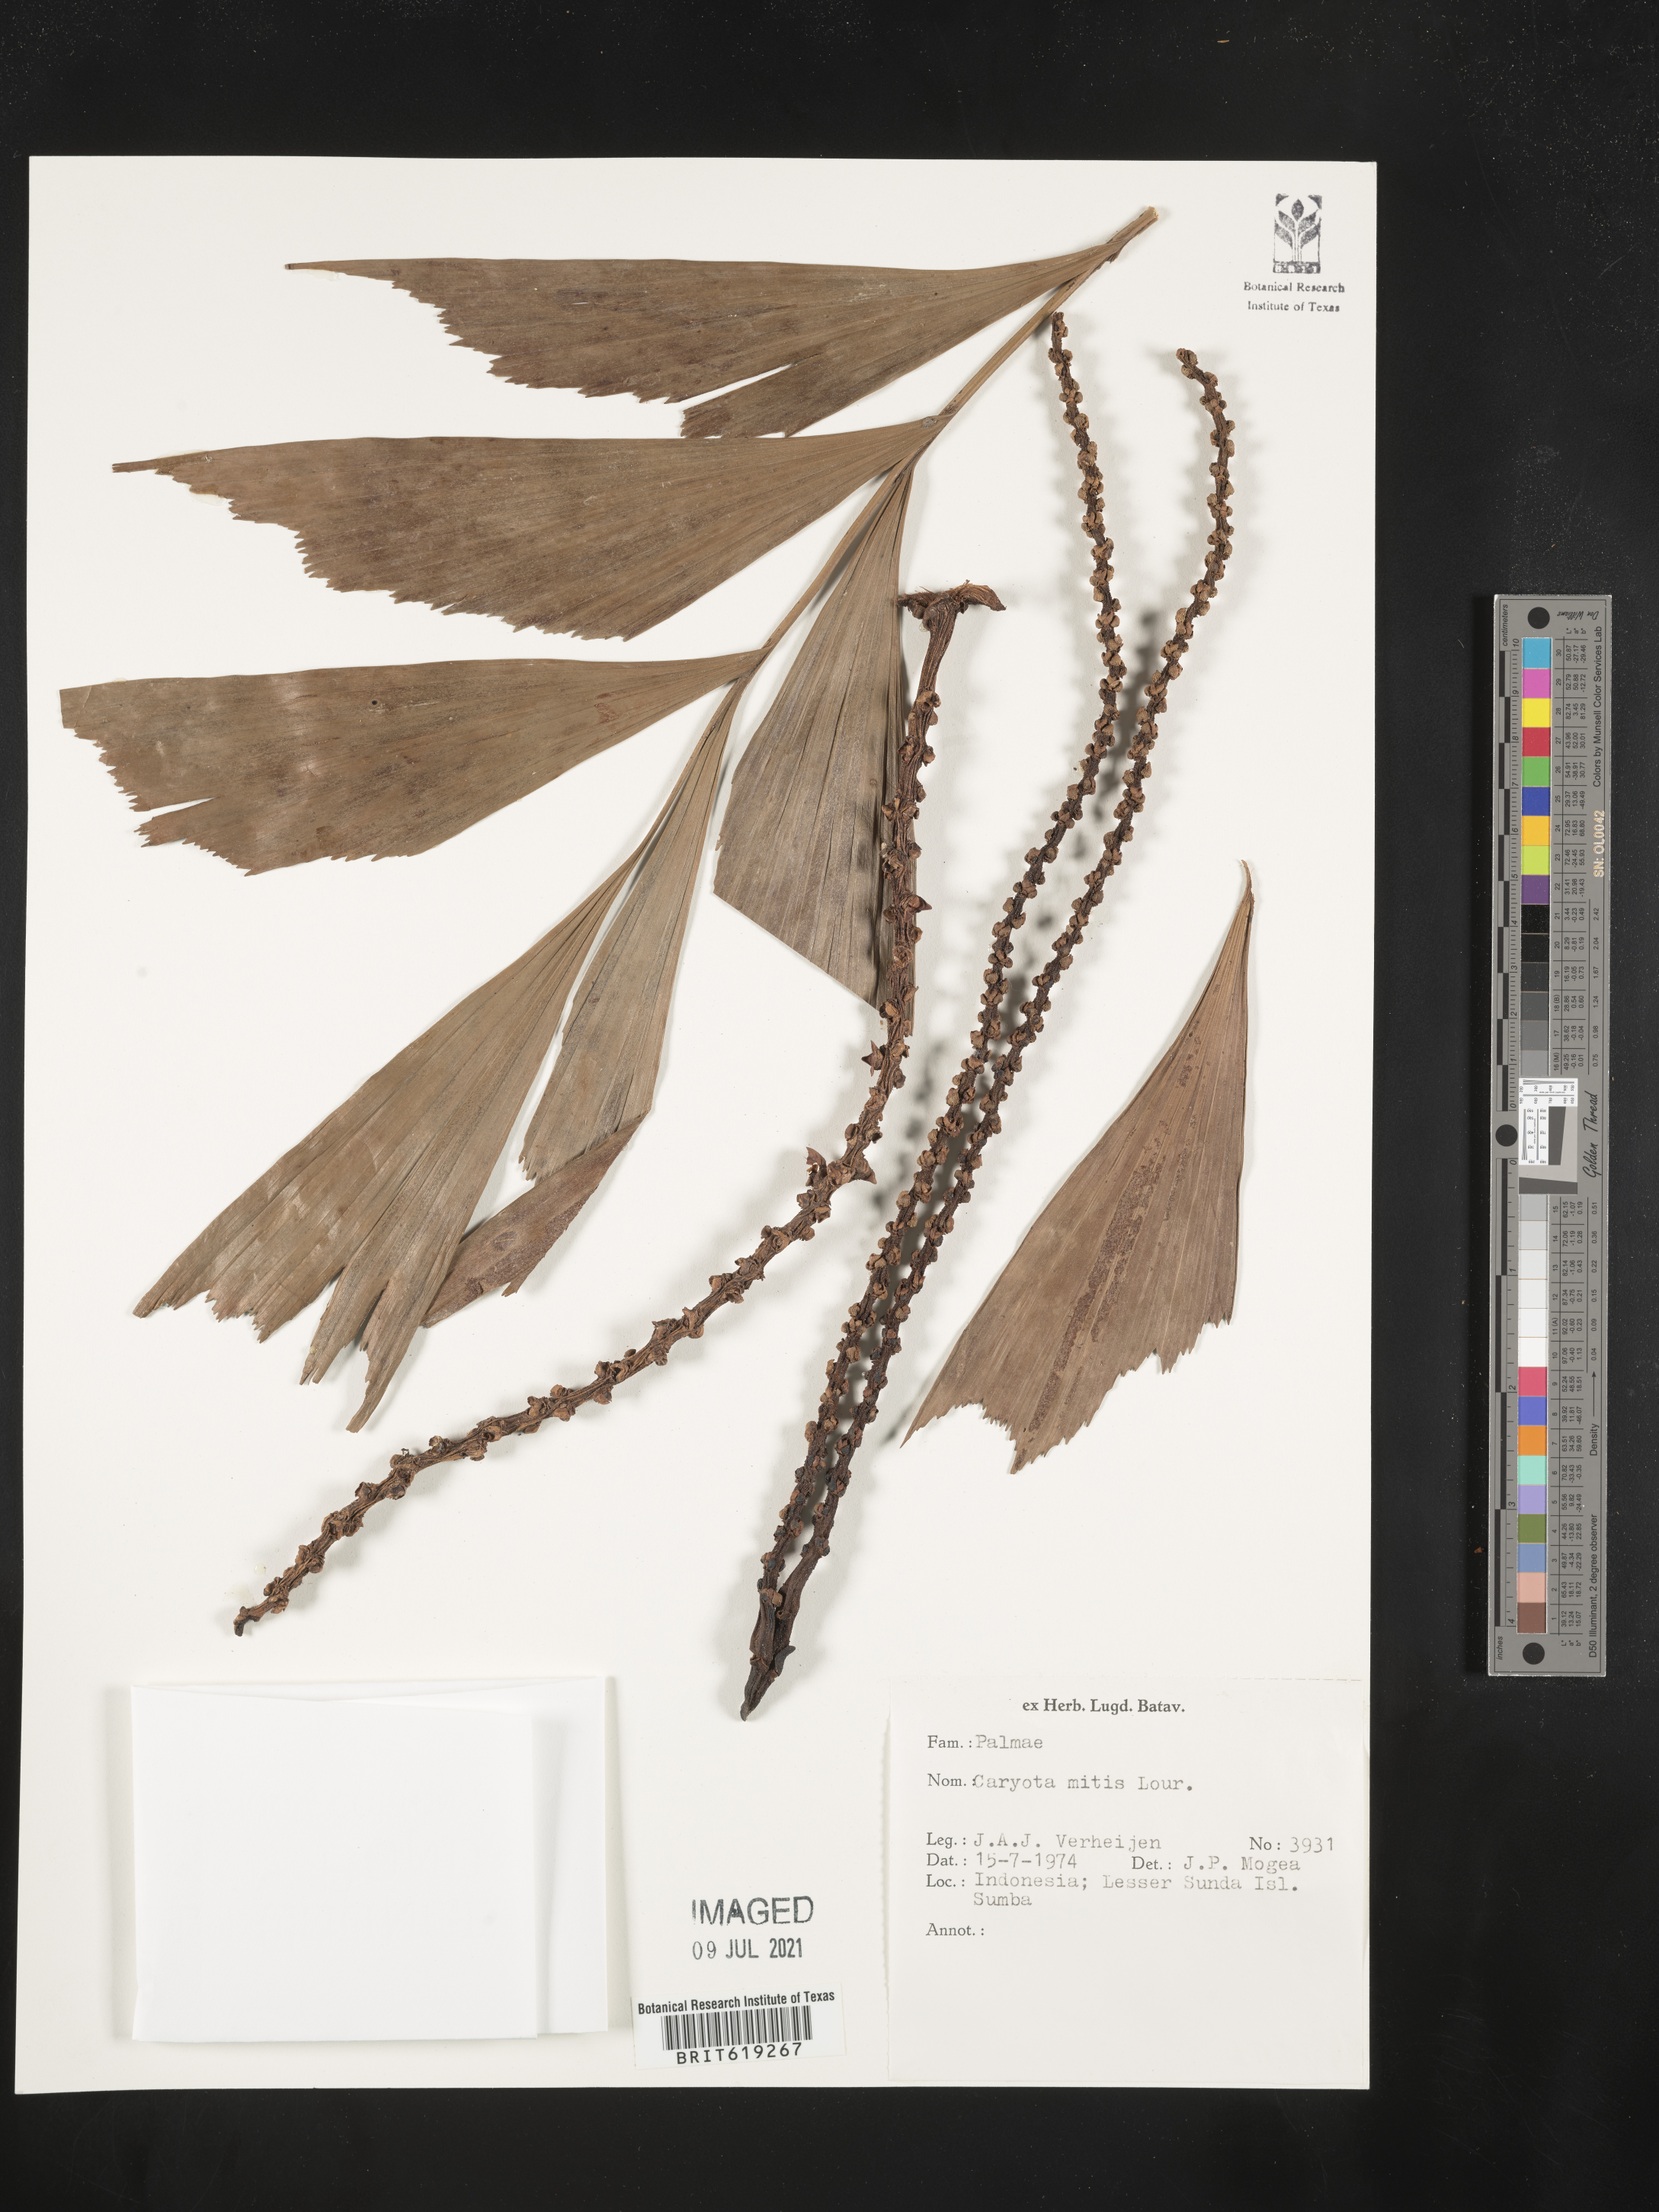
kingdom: Plantae
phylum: Tracheophyta
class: Liliopsida
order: Arecales
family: Arecaceae
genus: Caryota
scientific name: Caryota mitis
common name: Burmese fishtail palm
